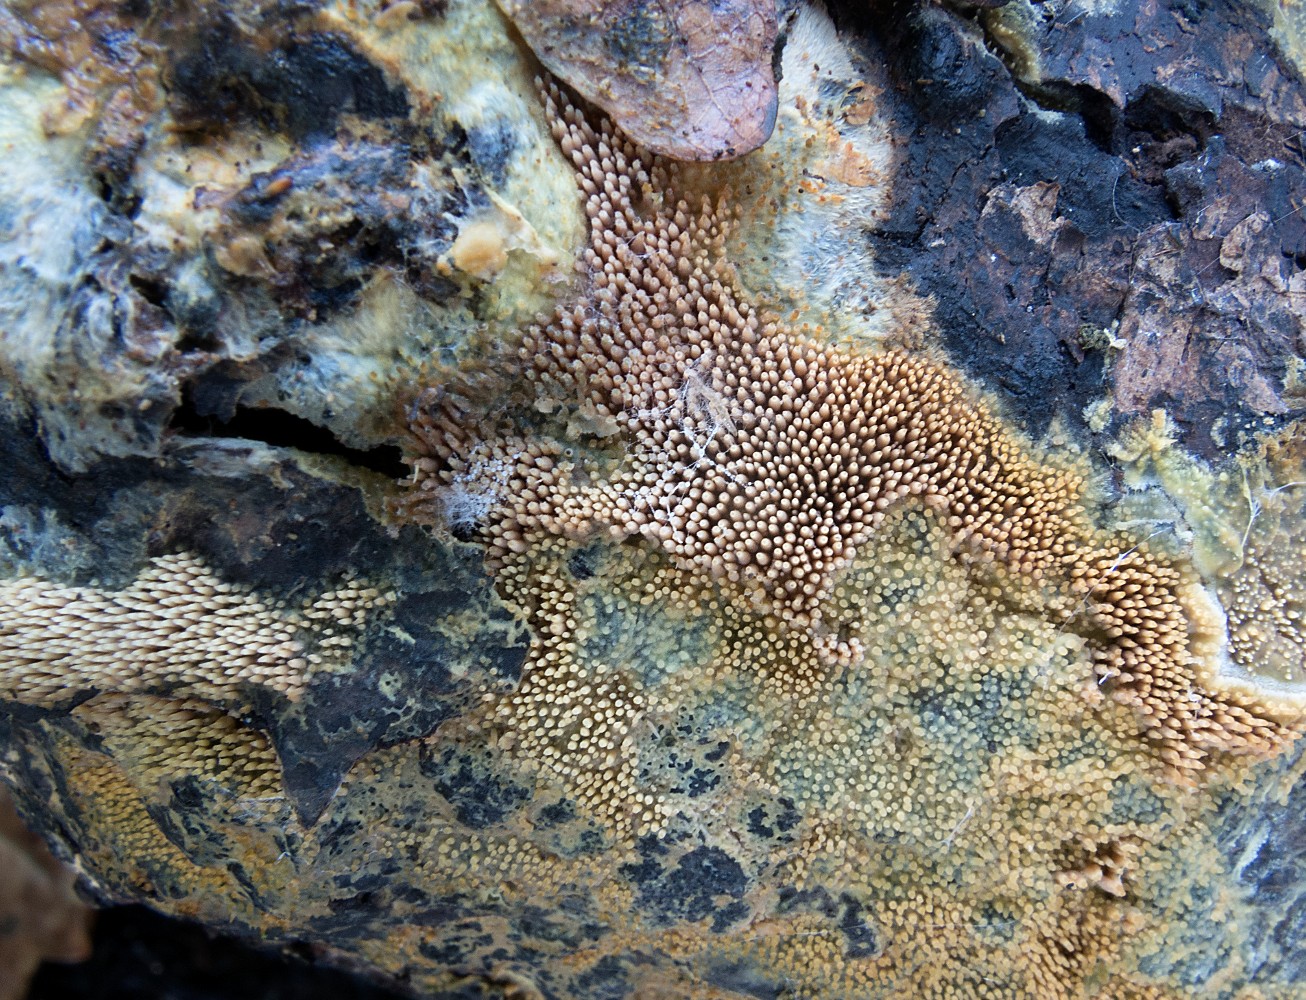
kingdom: Fungi
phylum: Basidiomycota
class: Agaricomycetes
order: Polyporales
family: Meruliaceae
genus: Mycoaciella
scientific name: Mycoaciella bispora
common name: stalaktit-vokspig
